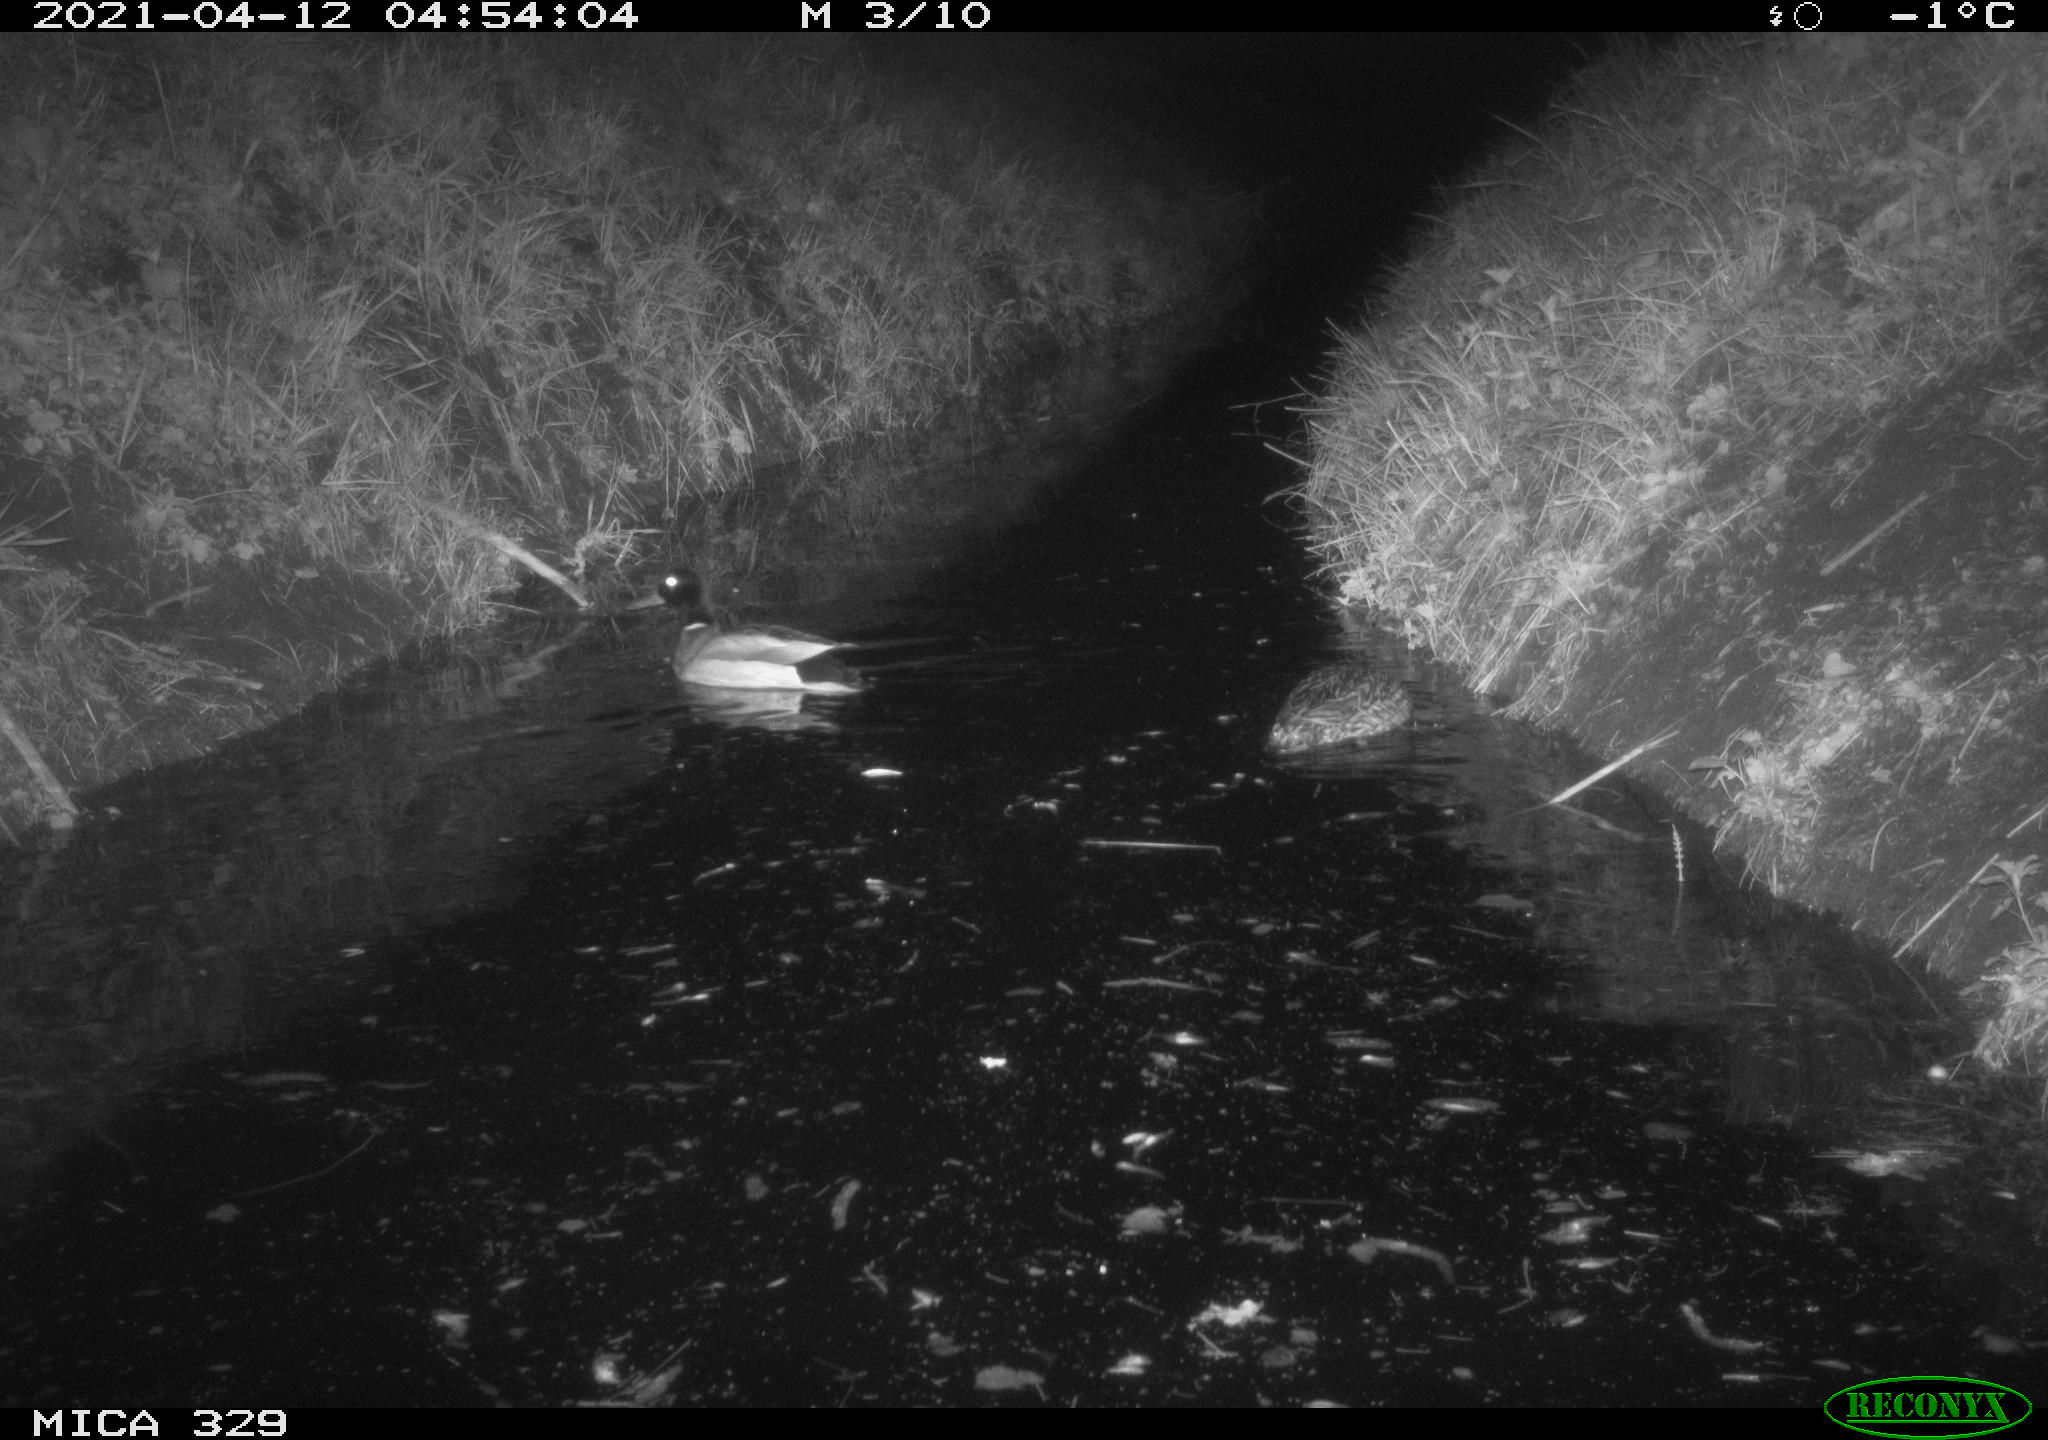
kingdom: Animalia
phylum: Chordata
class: Aves
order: Anseriformes
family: Anatidae
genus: Anas
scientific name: Anas platyrhynchos
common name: Mallard
